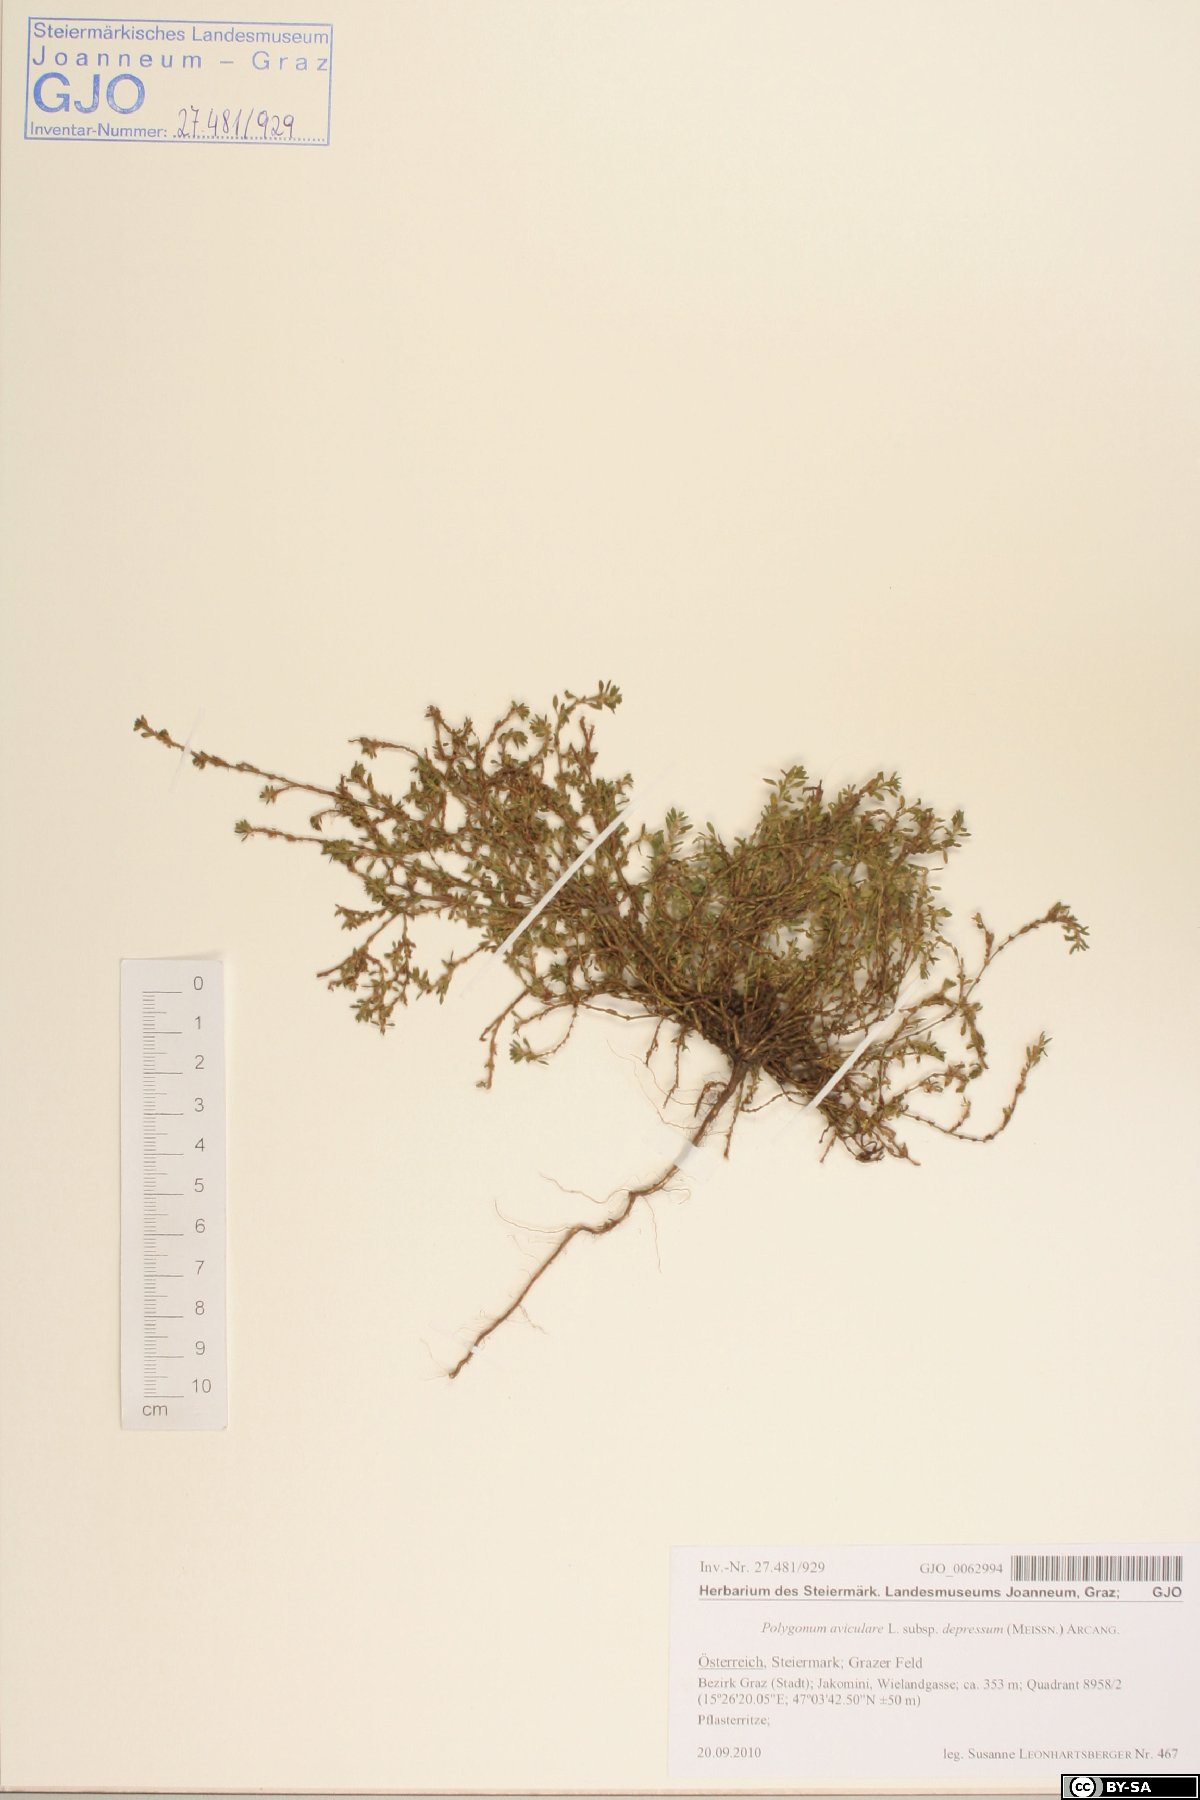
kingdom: Plantae
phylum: Tracheophyta
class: Magnoliopsida
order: Caryophyllales
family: Polygonaceae
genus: Polygonum
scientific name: Polygonum arenastrum
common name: Equal-leaved knotgrass
